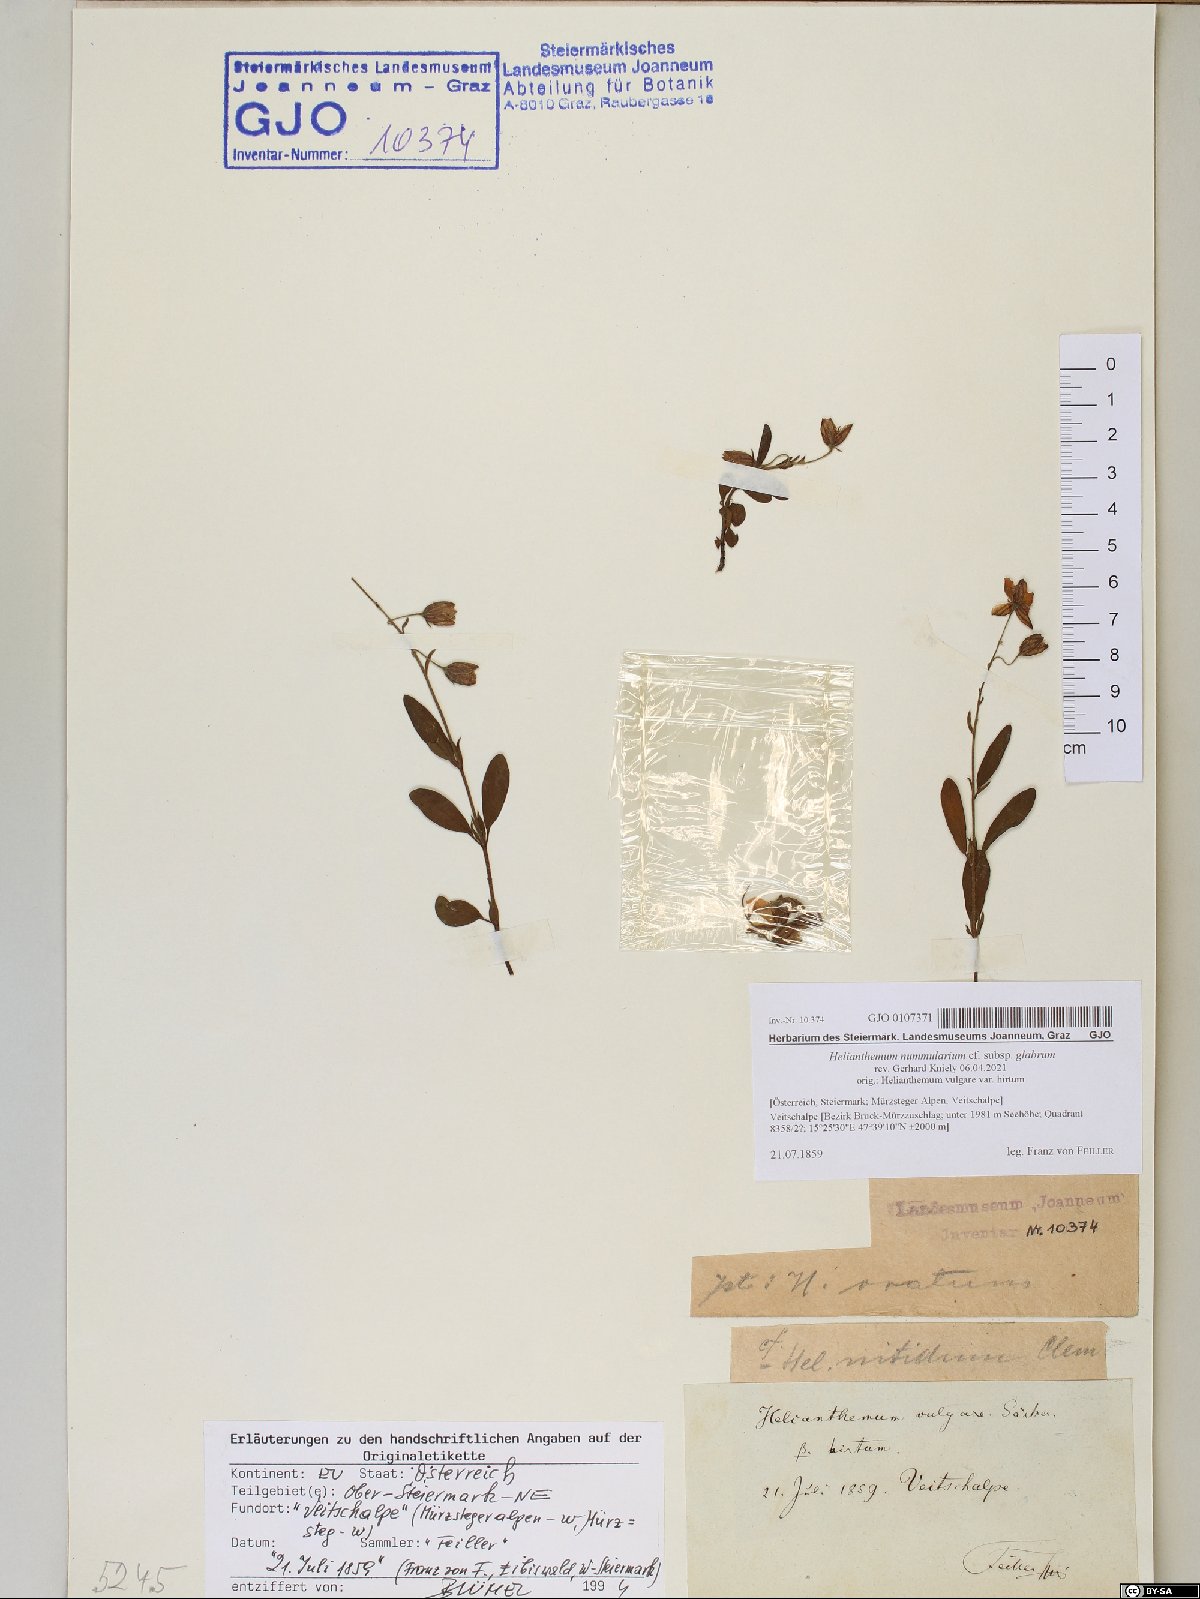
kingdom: Plantae
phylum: Tracheophyta
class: Magnoliopsida
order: Malvales
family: Cistaceae
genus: Helianthemum
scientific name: Helianthemum nummularium
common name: Common rock-rose
